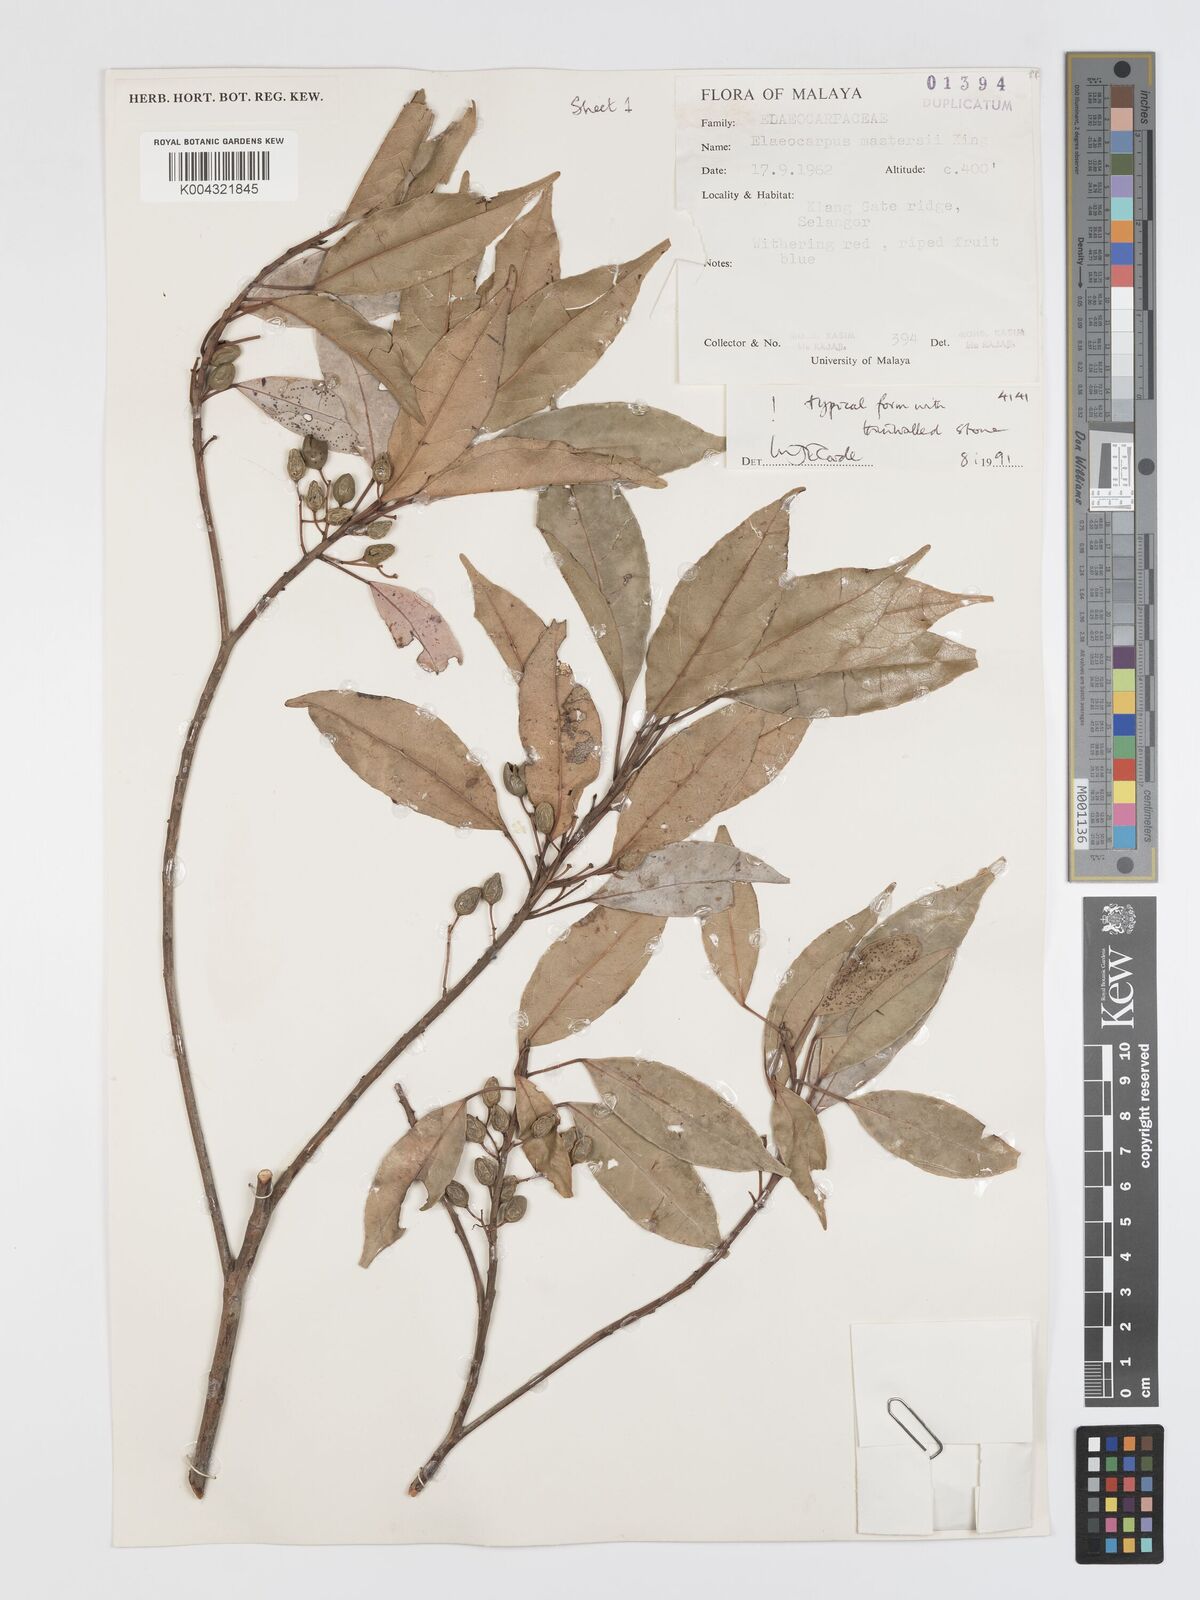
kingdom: Plantae
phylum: Tracheophyta
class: Magnoliopsida
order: Oxalidales
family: Elaeocarpaceae
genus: Elaeocarpus
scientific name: Elaeocarpus mastersii
